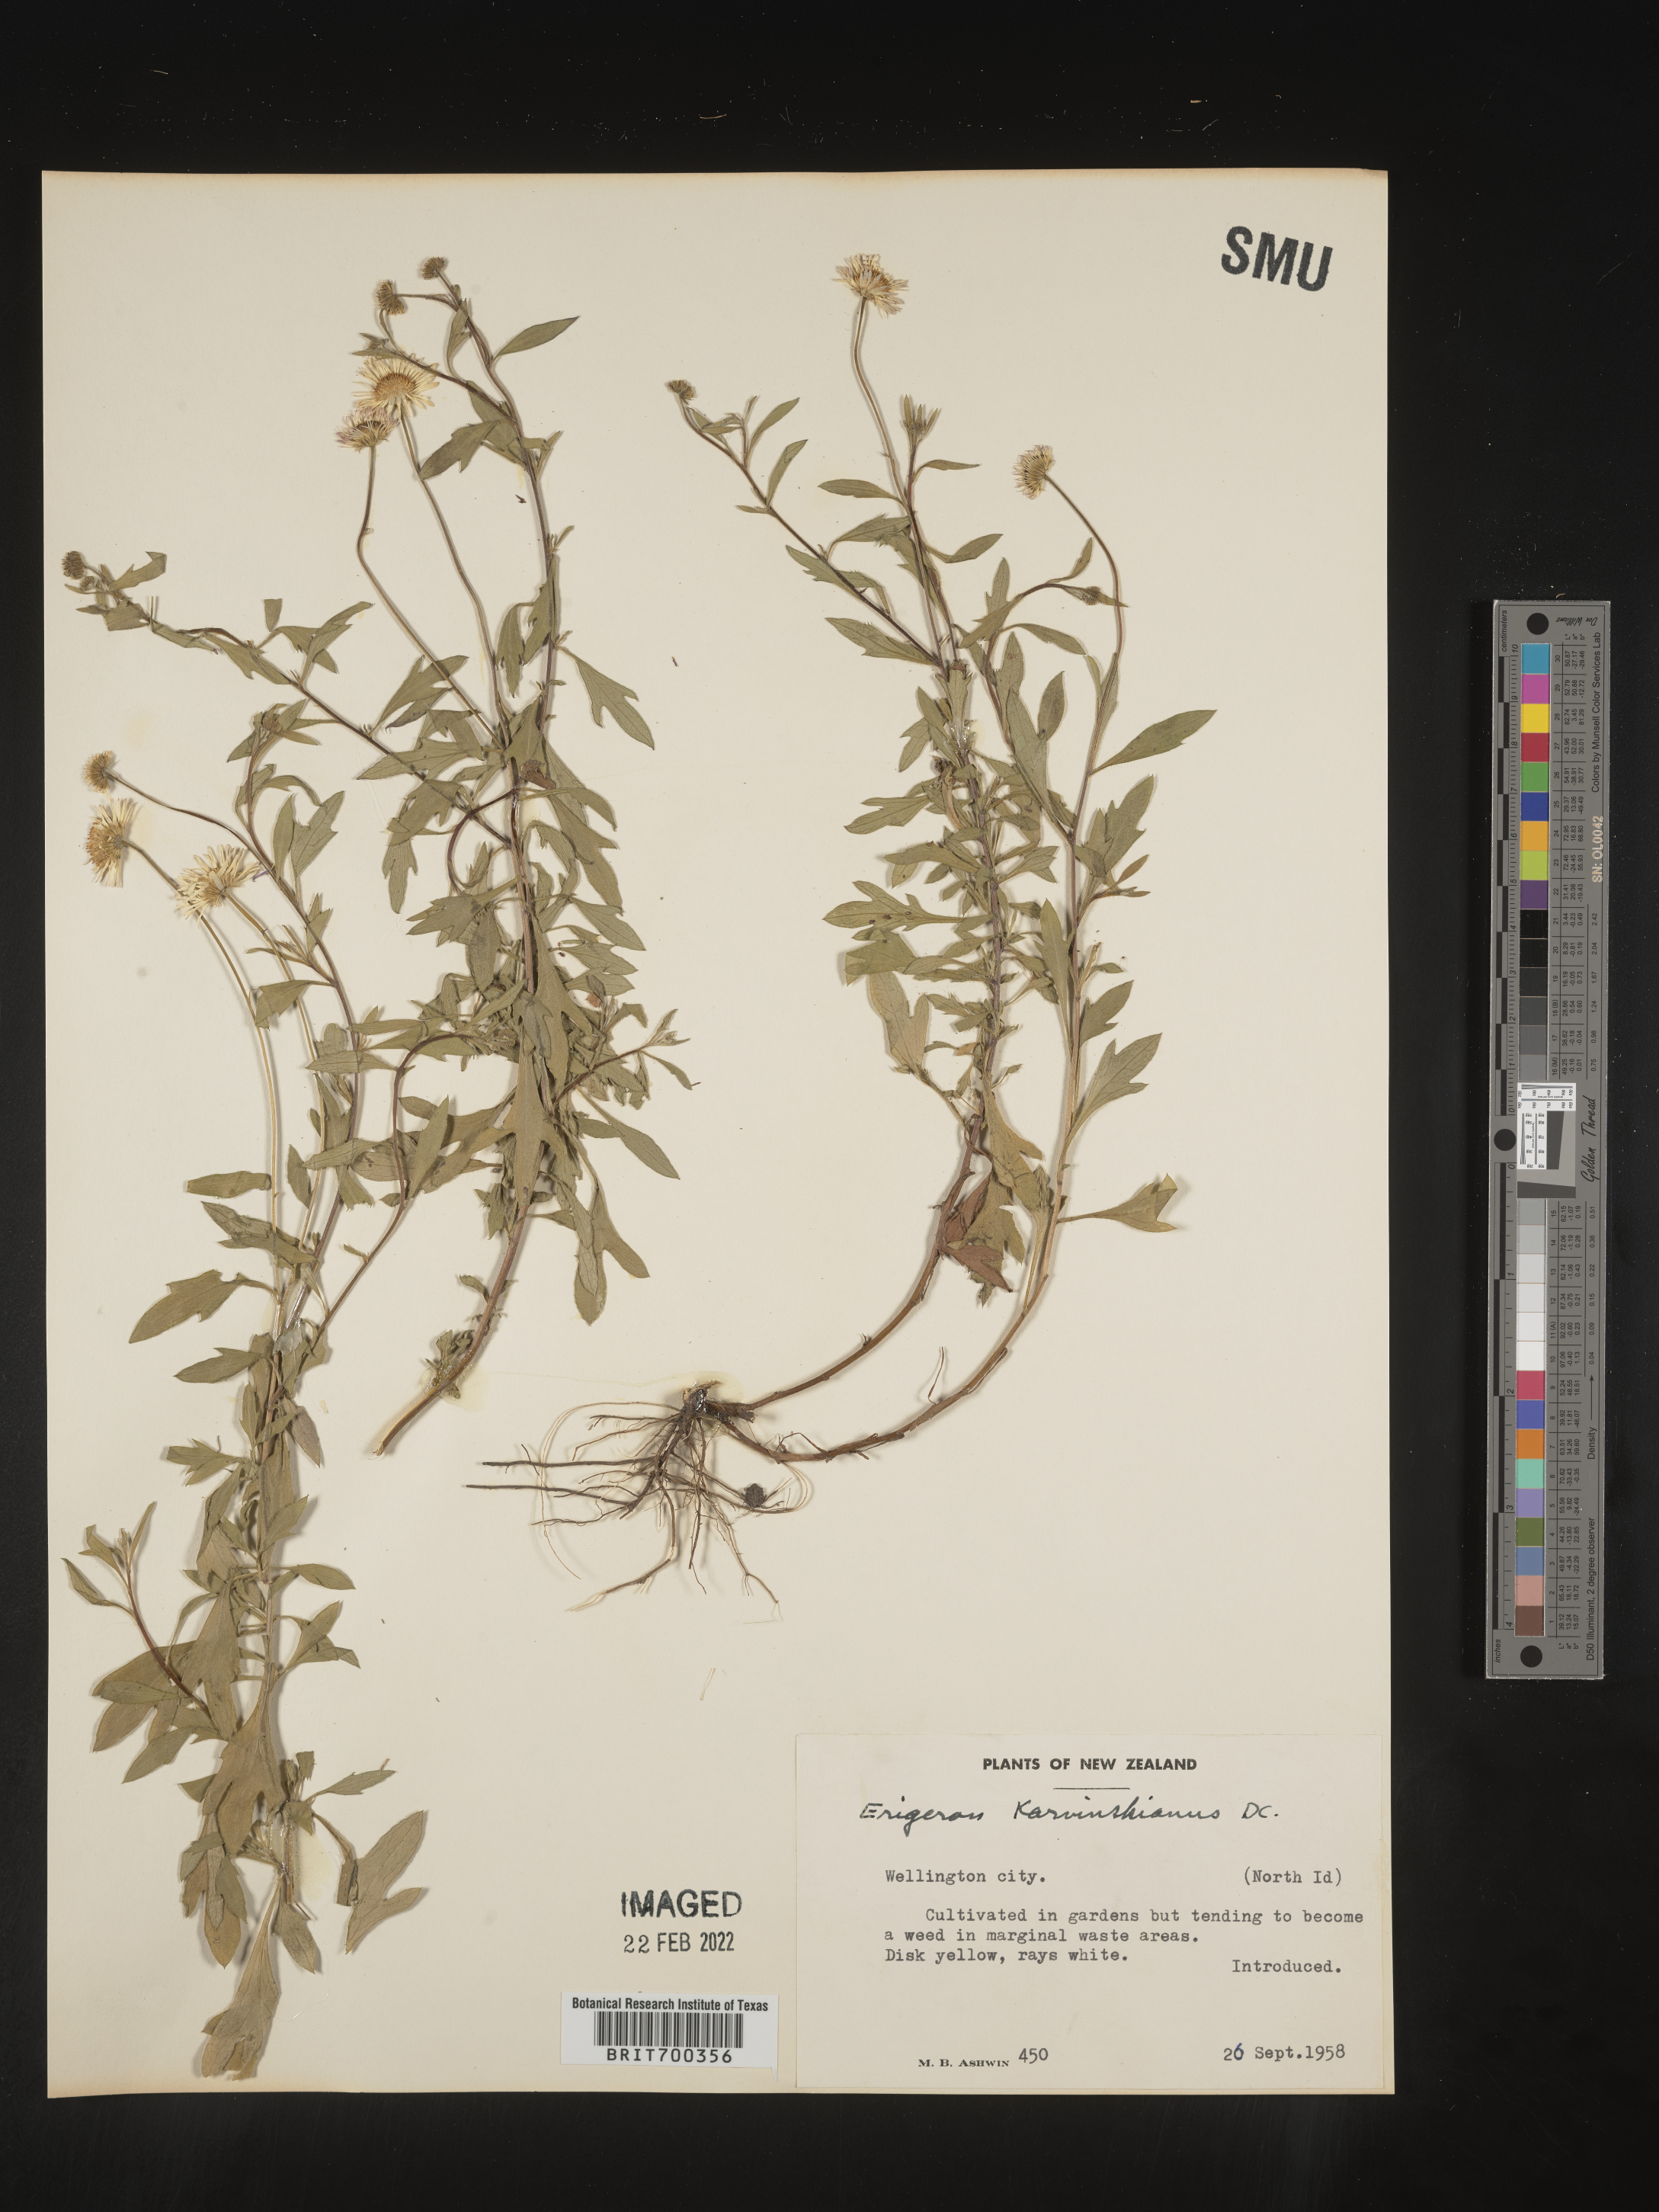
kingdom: Plantae
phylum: Tracheophyta
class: Magnoliopsida
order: Asterales
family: Asteraceae
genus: Erigeron
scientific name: Erigeron
